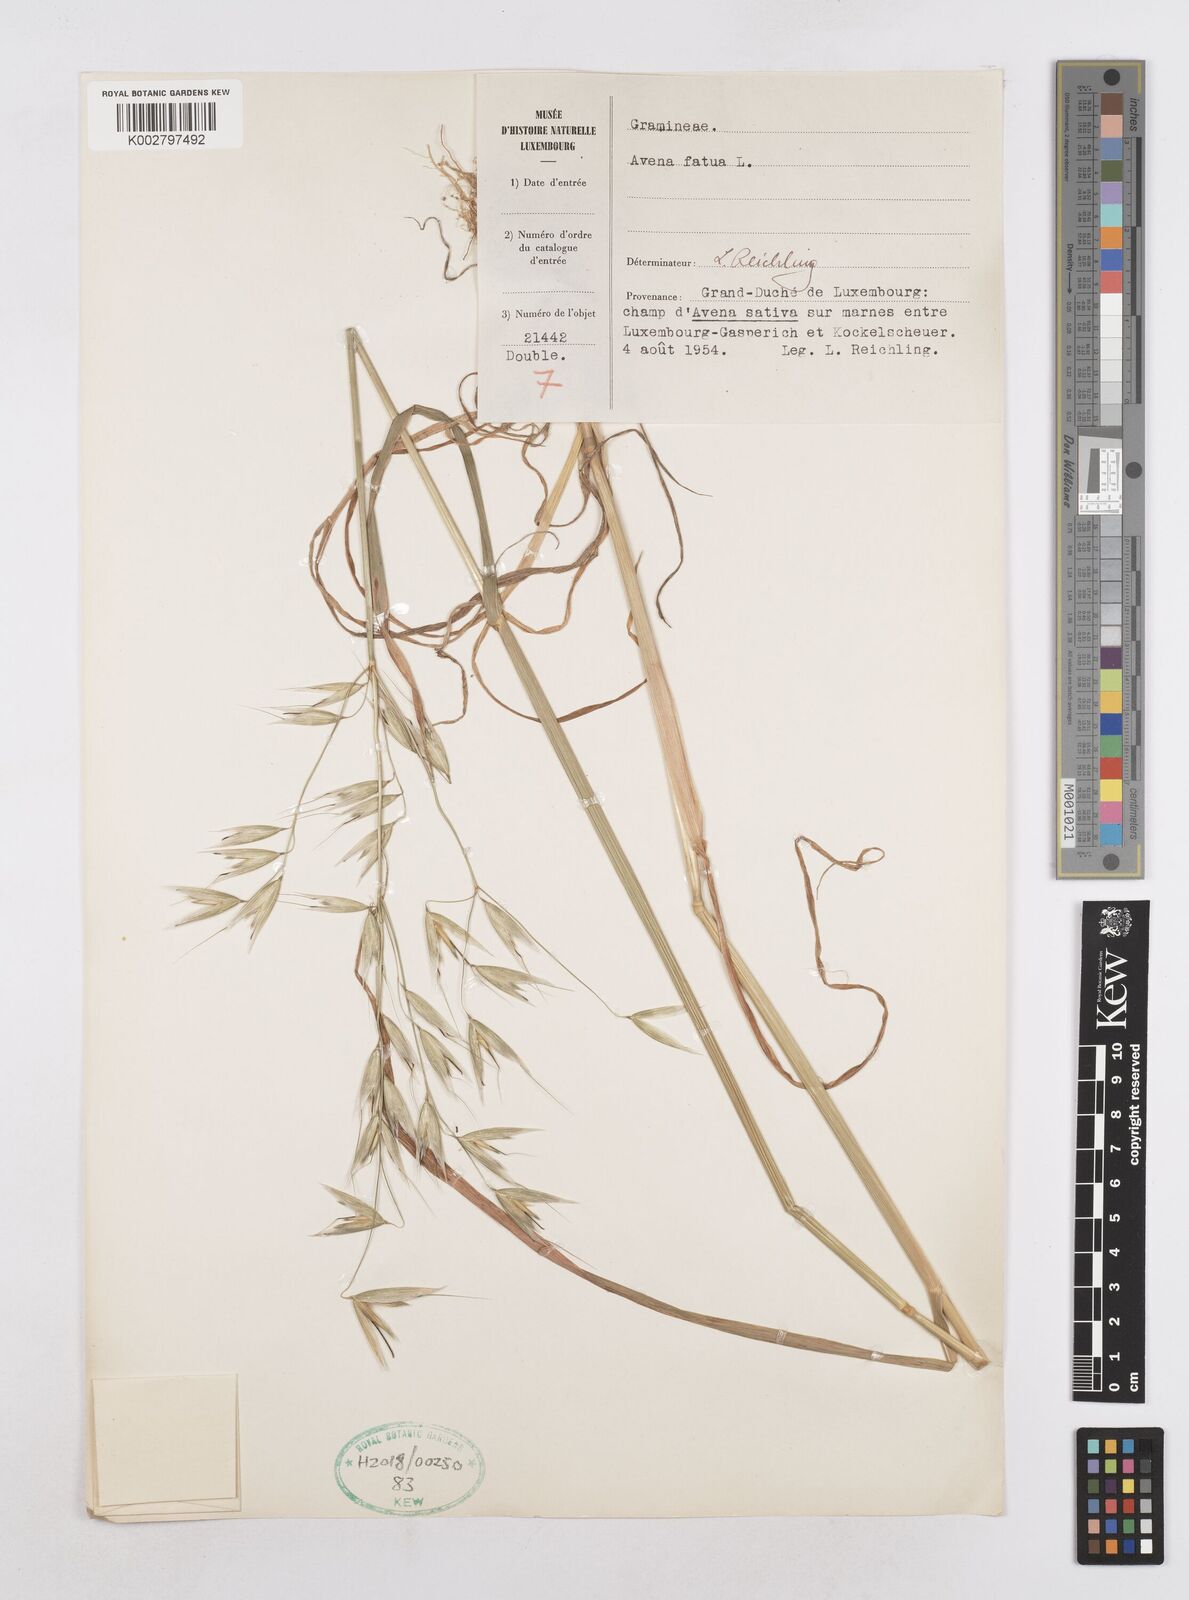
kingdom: Plantae
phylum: Tracheophyta
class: Liliopsida
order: Poales
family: Poaceae
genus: Avena
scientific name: Avena fatua
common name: Wild oat
